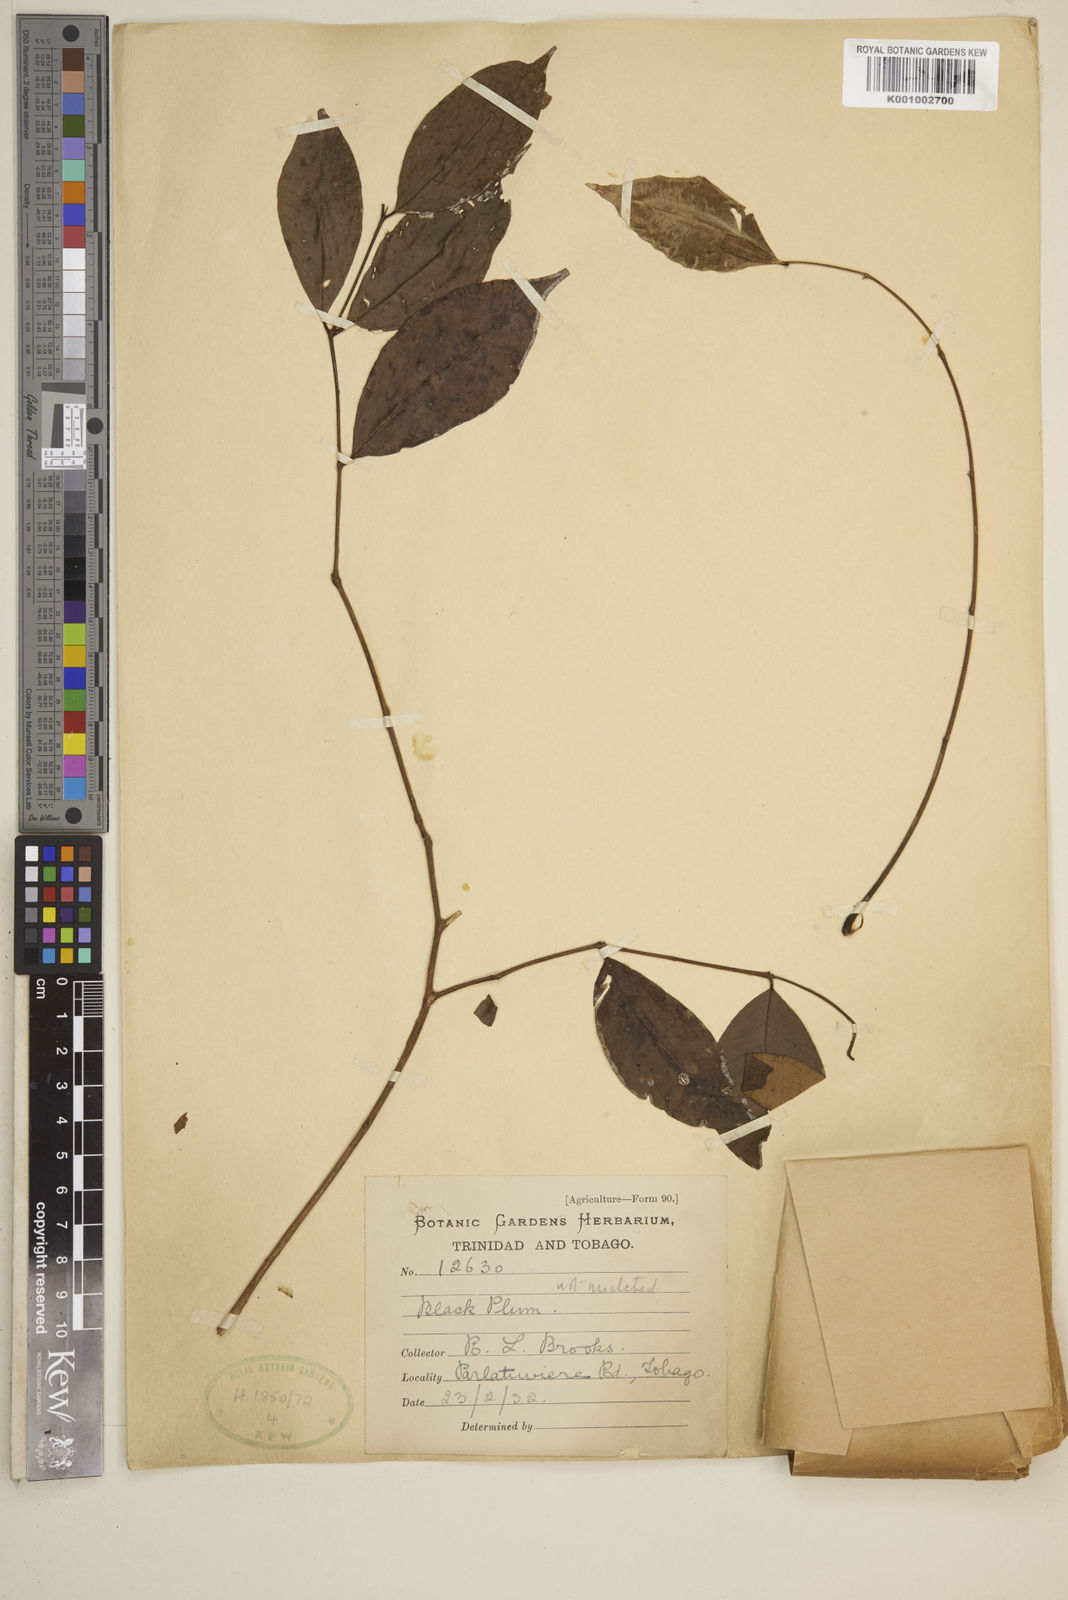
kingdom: Plantae
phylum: Tracheophyta
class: Magnoliopsida
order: Myrtales
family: Myrtaceae
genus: Eugenia
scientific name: Eugenia
